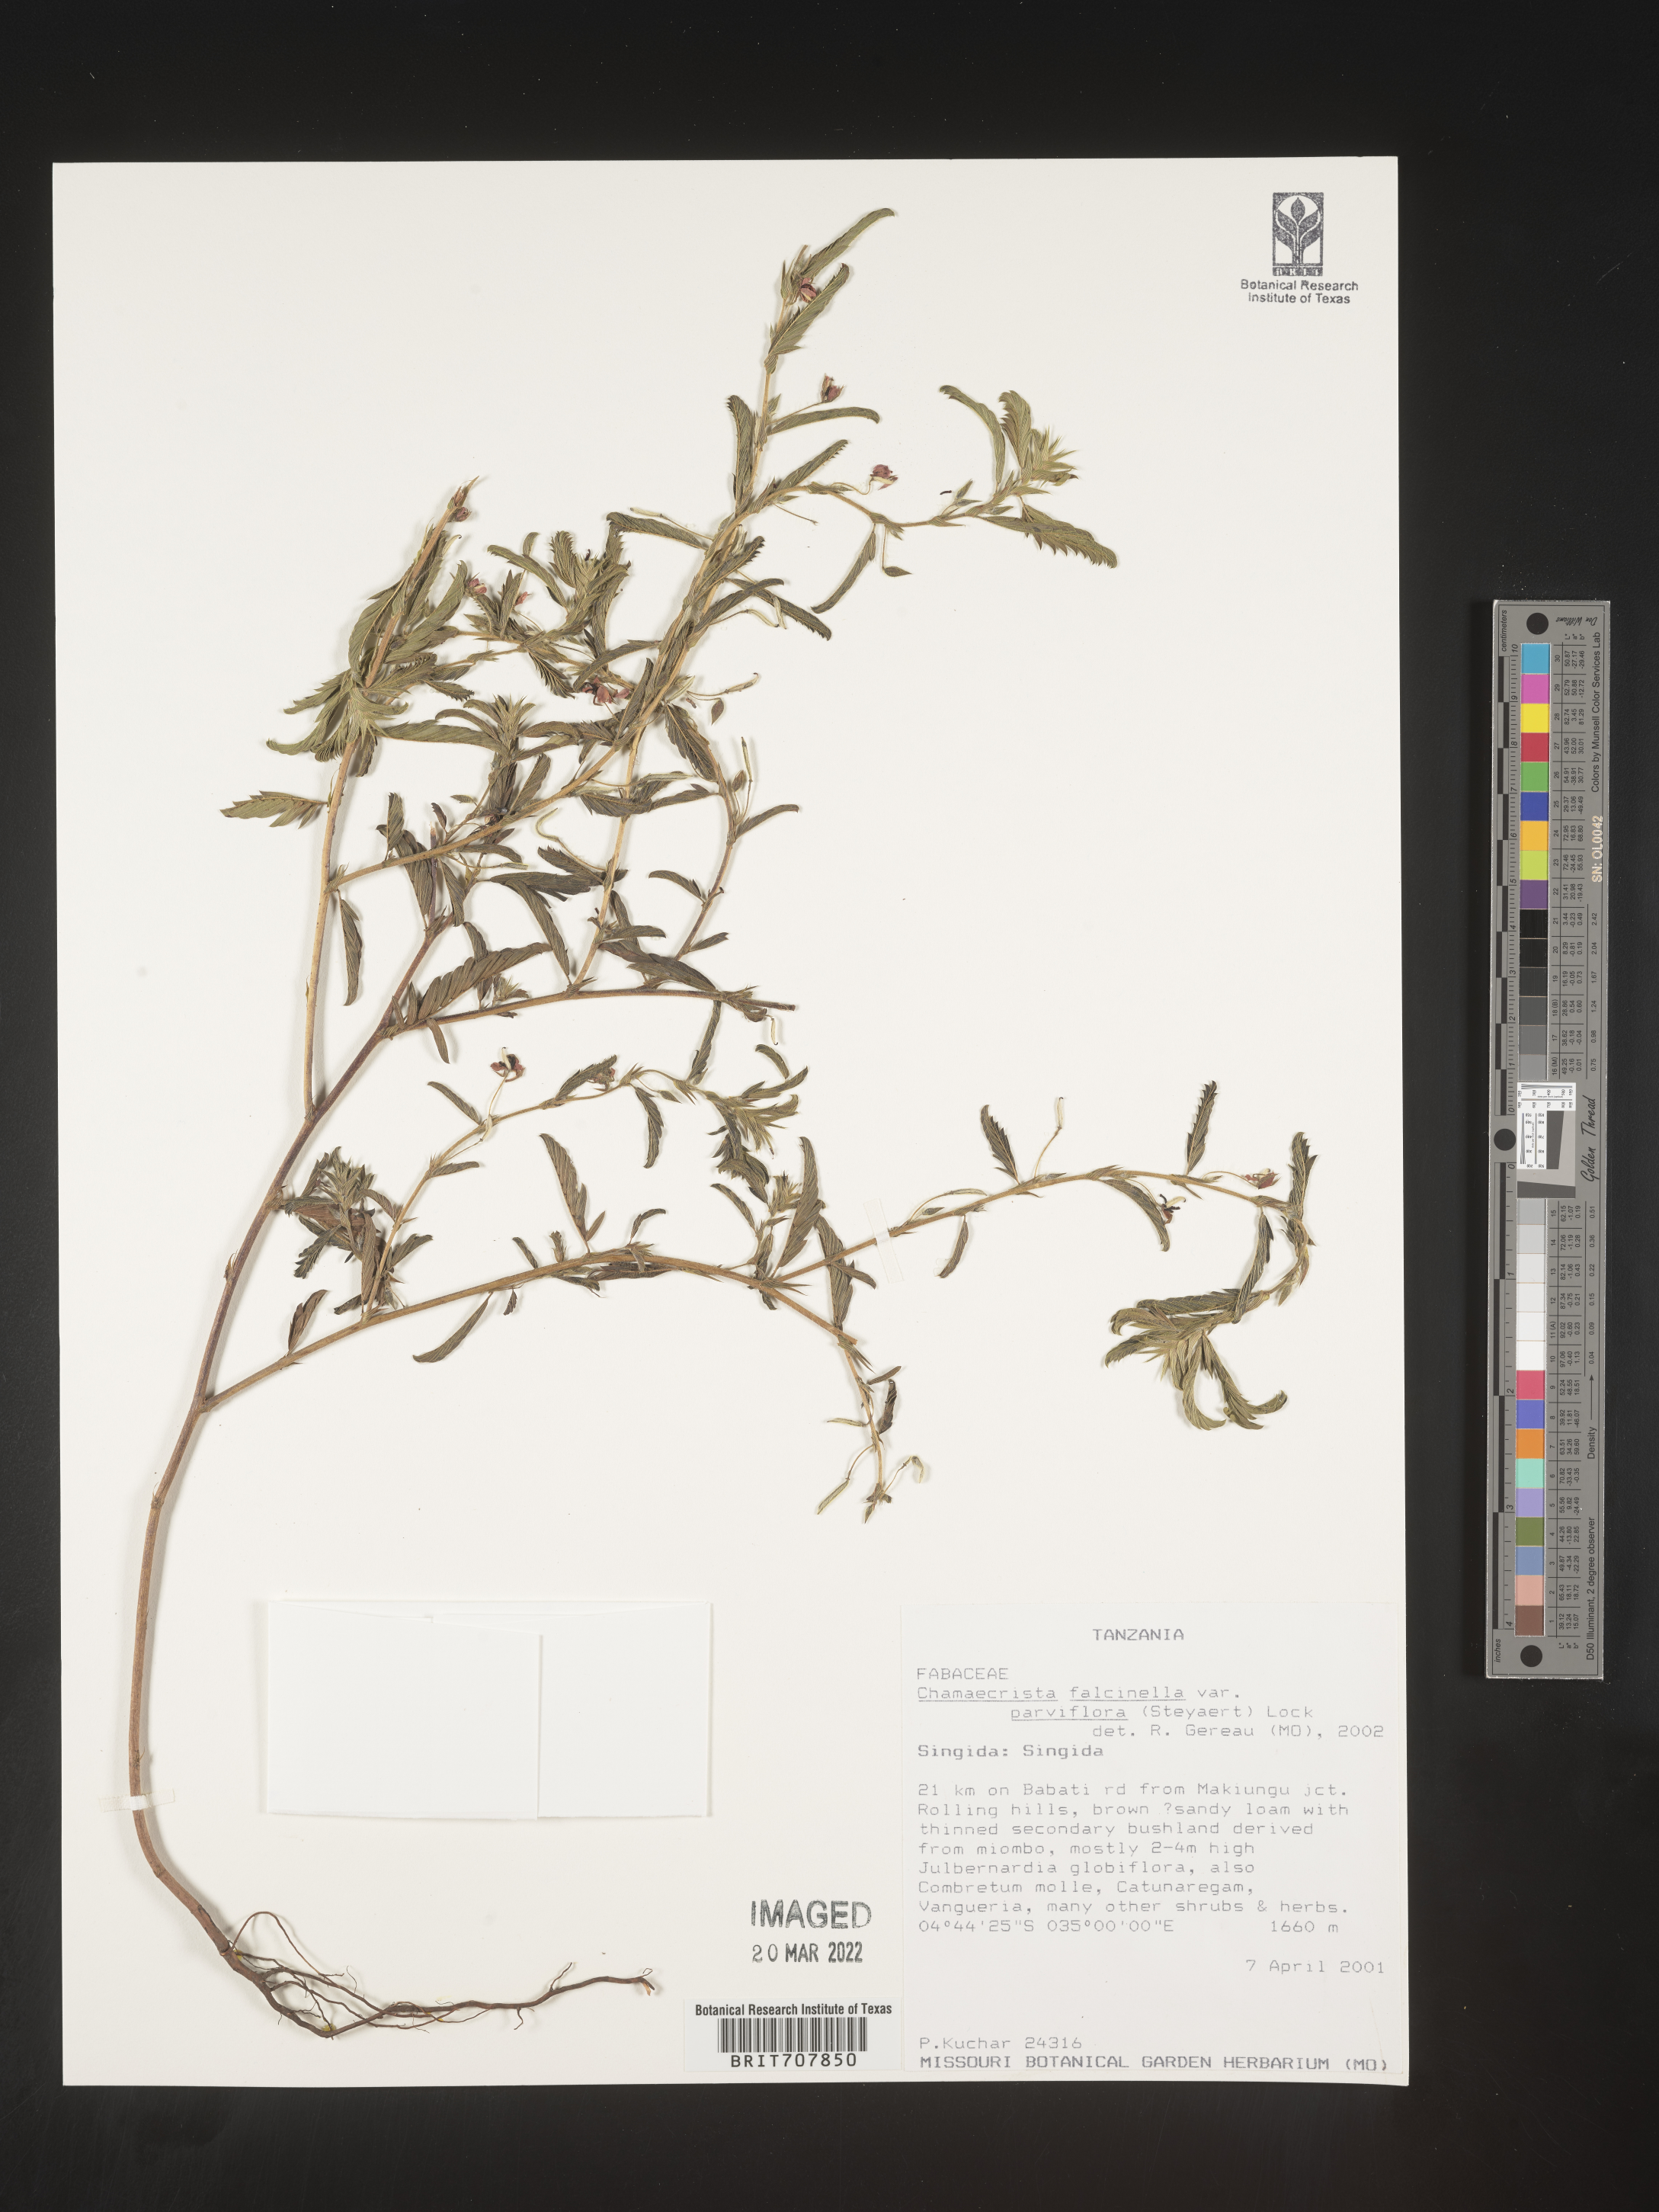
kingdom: Plantae
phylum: Tracheophyta
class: Magnoliopsida
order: Fabales
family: Fabaceae
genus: Chamaecrista
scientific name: Chamaecrista
